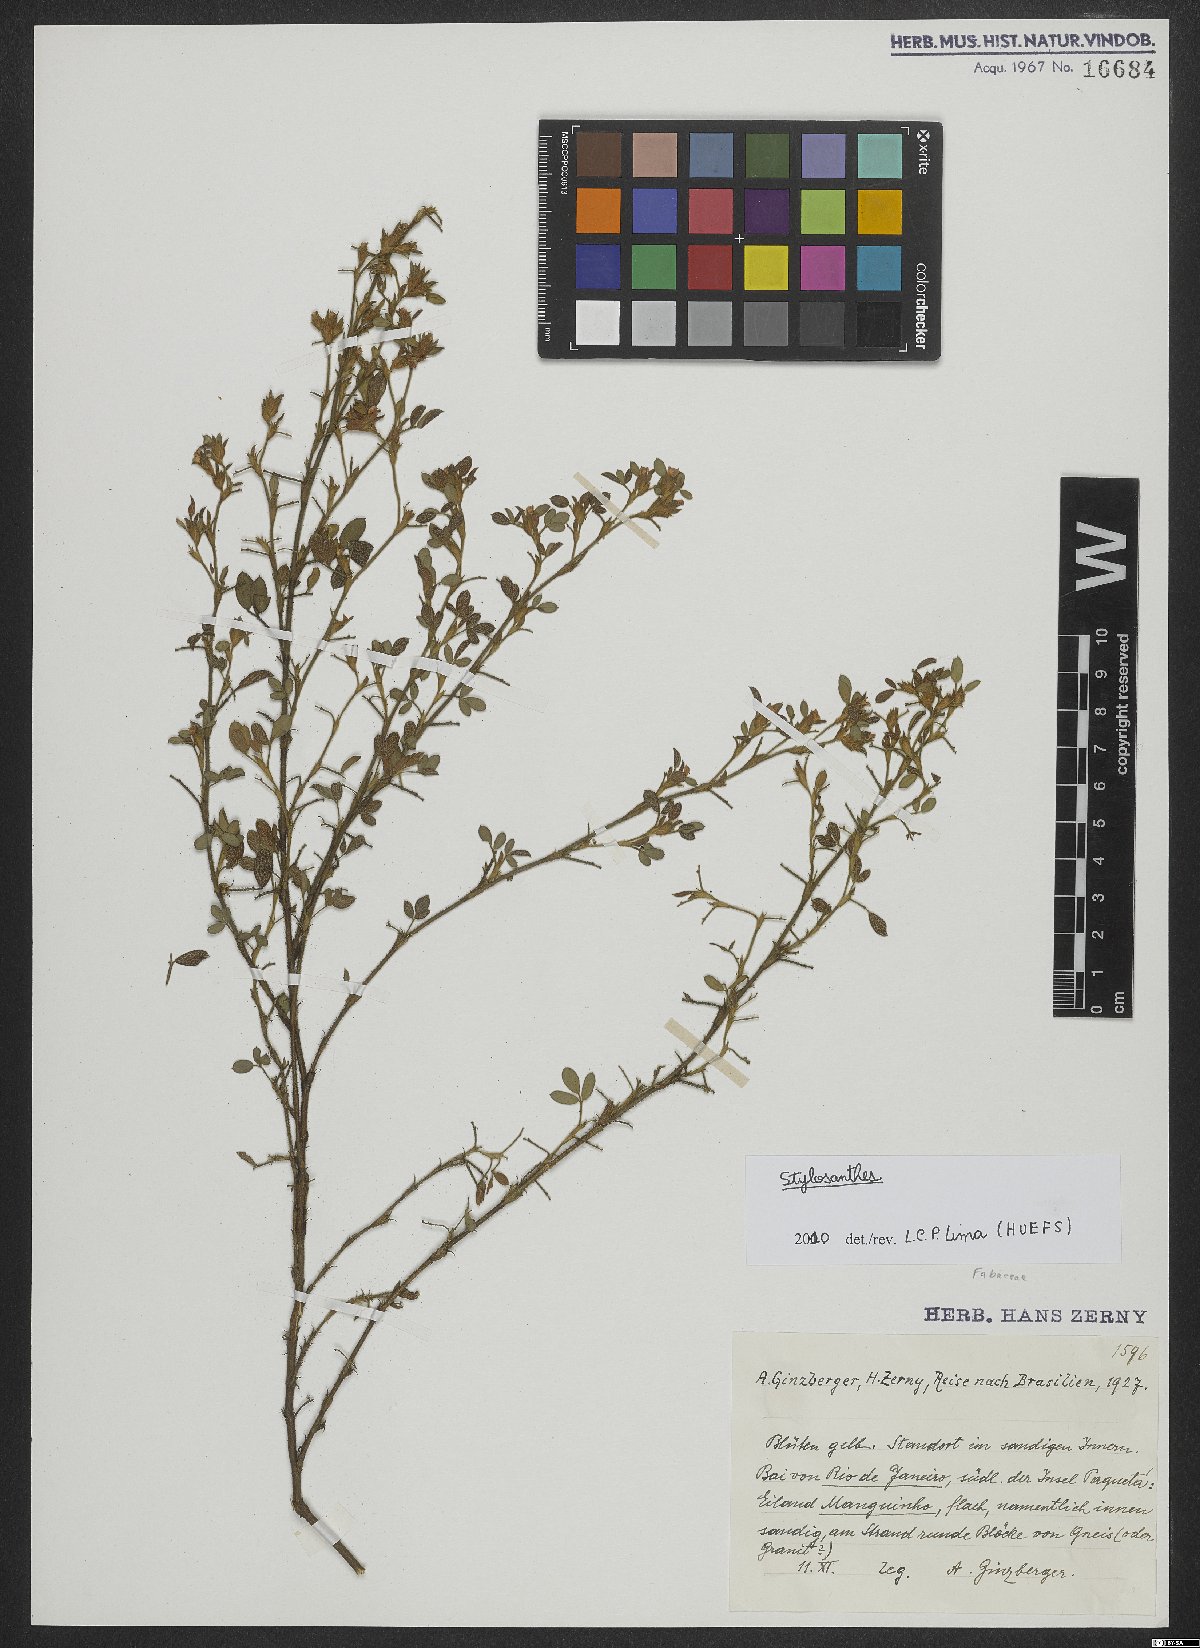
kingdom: Plantae
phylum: Tracheophyta
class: Magnoliopsida
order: Fabales
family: Fabaceae
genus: Stylosanthes
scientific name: Stylosanthes
